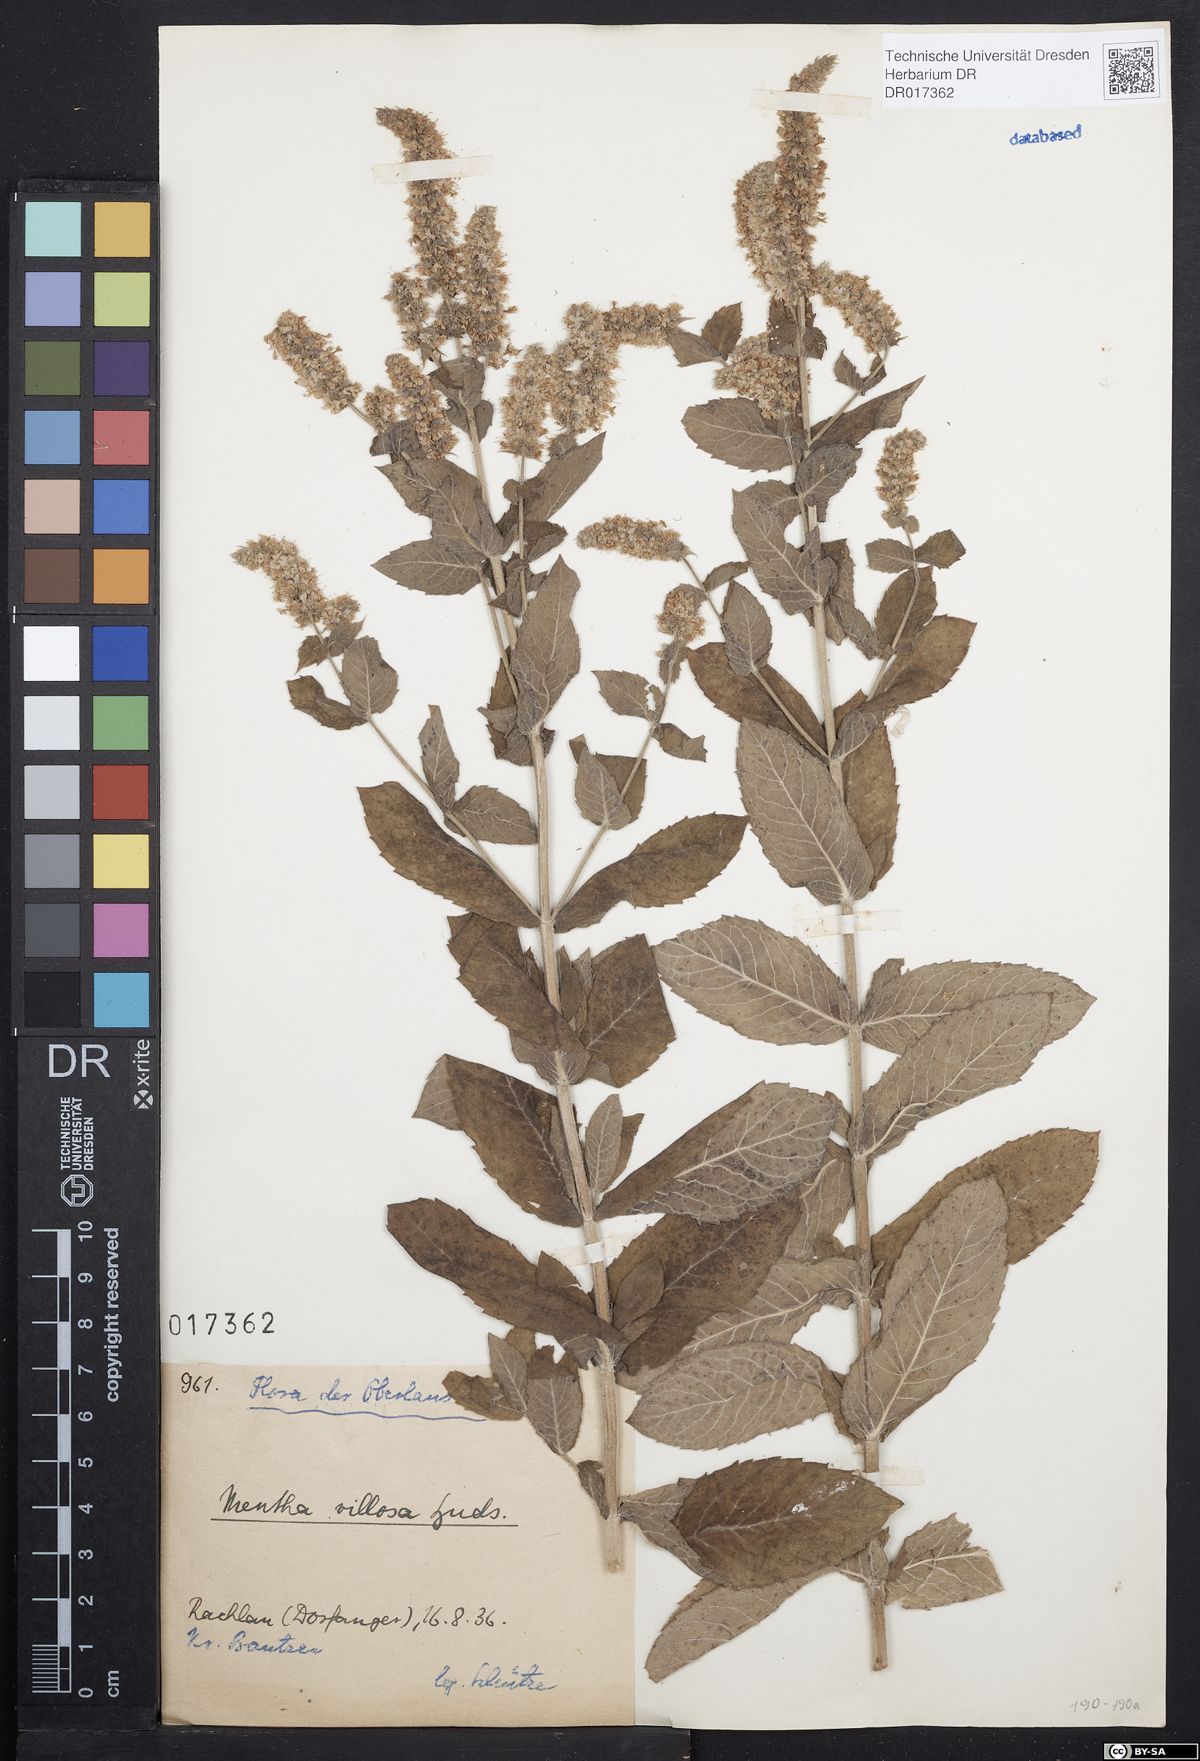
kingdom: Plantae
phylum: Tracheophyta
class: Magnoliopsida
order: Lamiales
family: Lamiaceae
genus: Mentha
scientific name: Mentha villosa
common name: Apple mint
